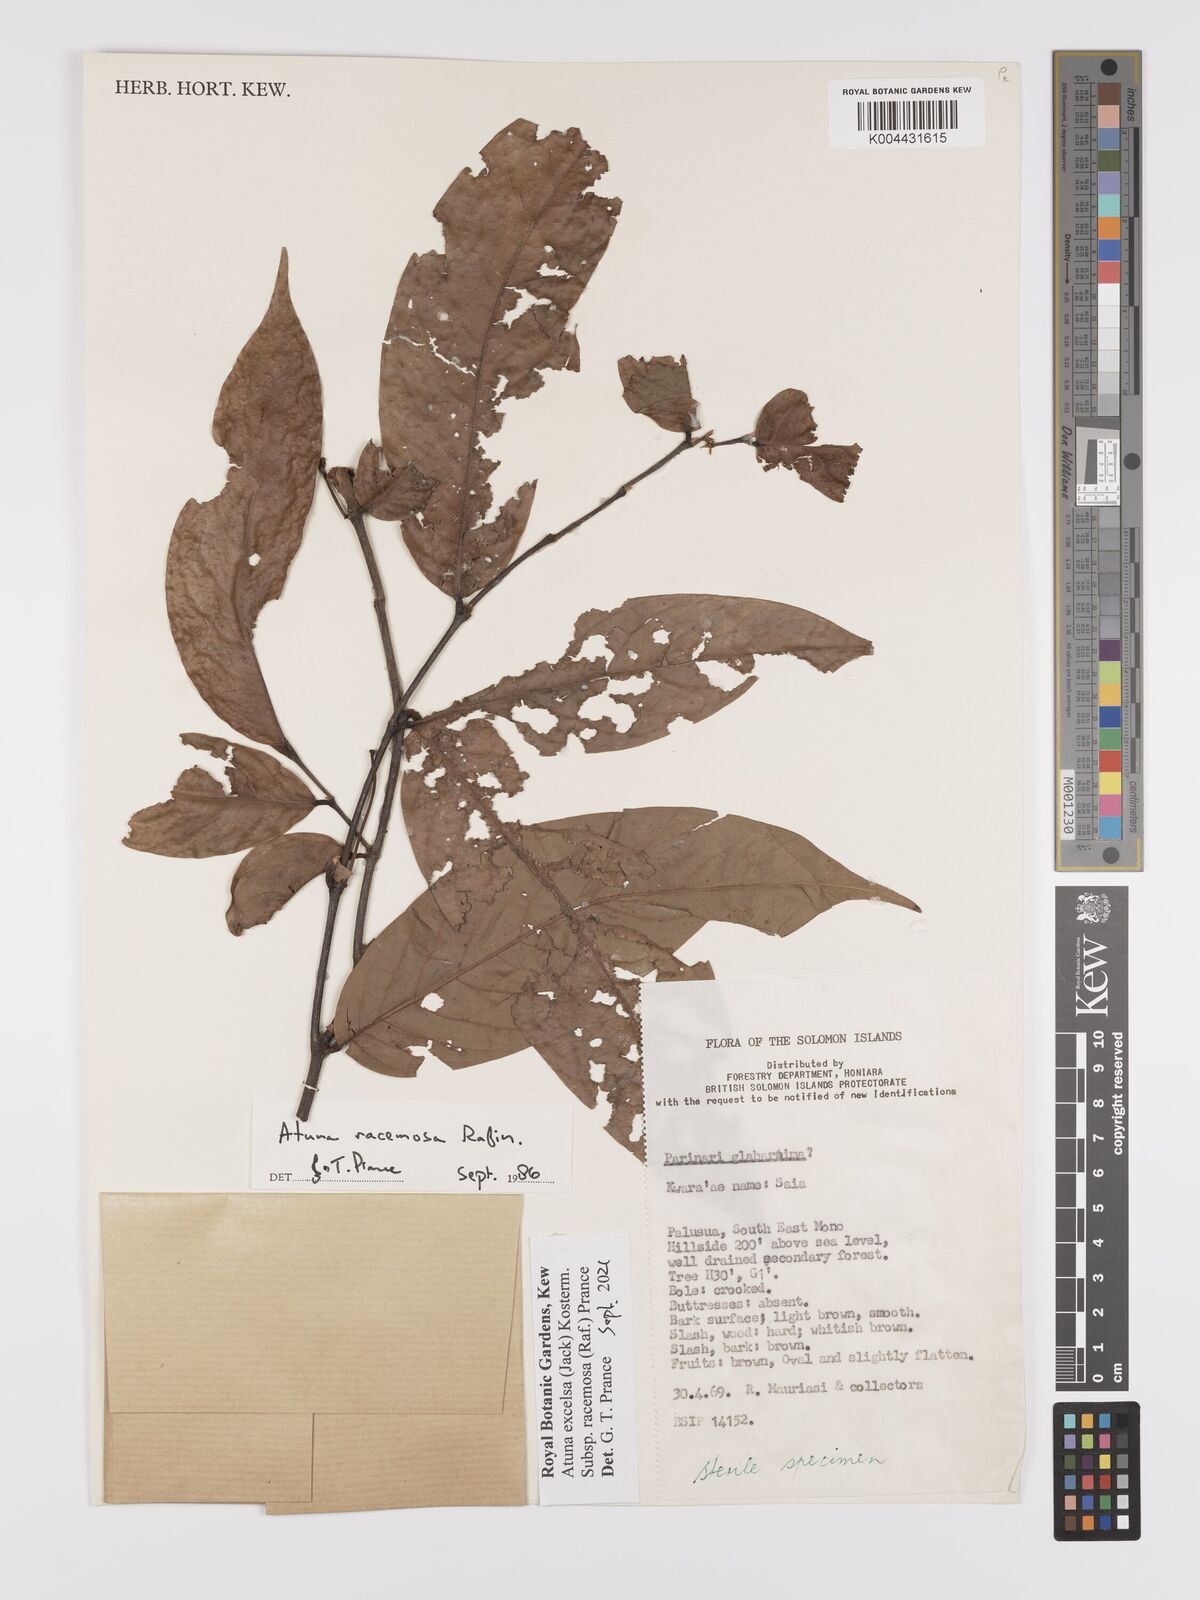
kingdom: Plantae
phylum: Tracheophyta
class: Magnoliopsida
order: Malpighiales
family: Chrysobalanaceae
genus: Atuna
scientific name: Atuna excelsa
